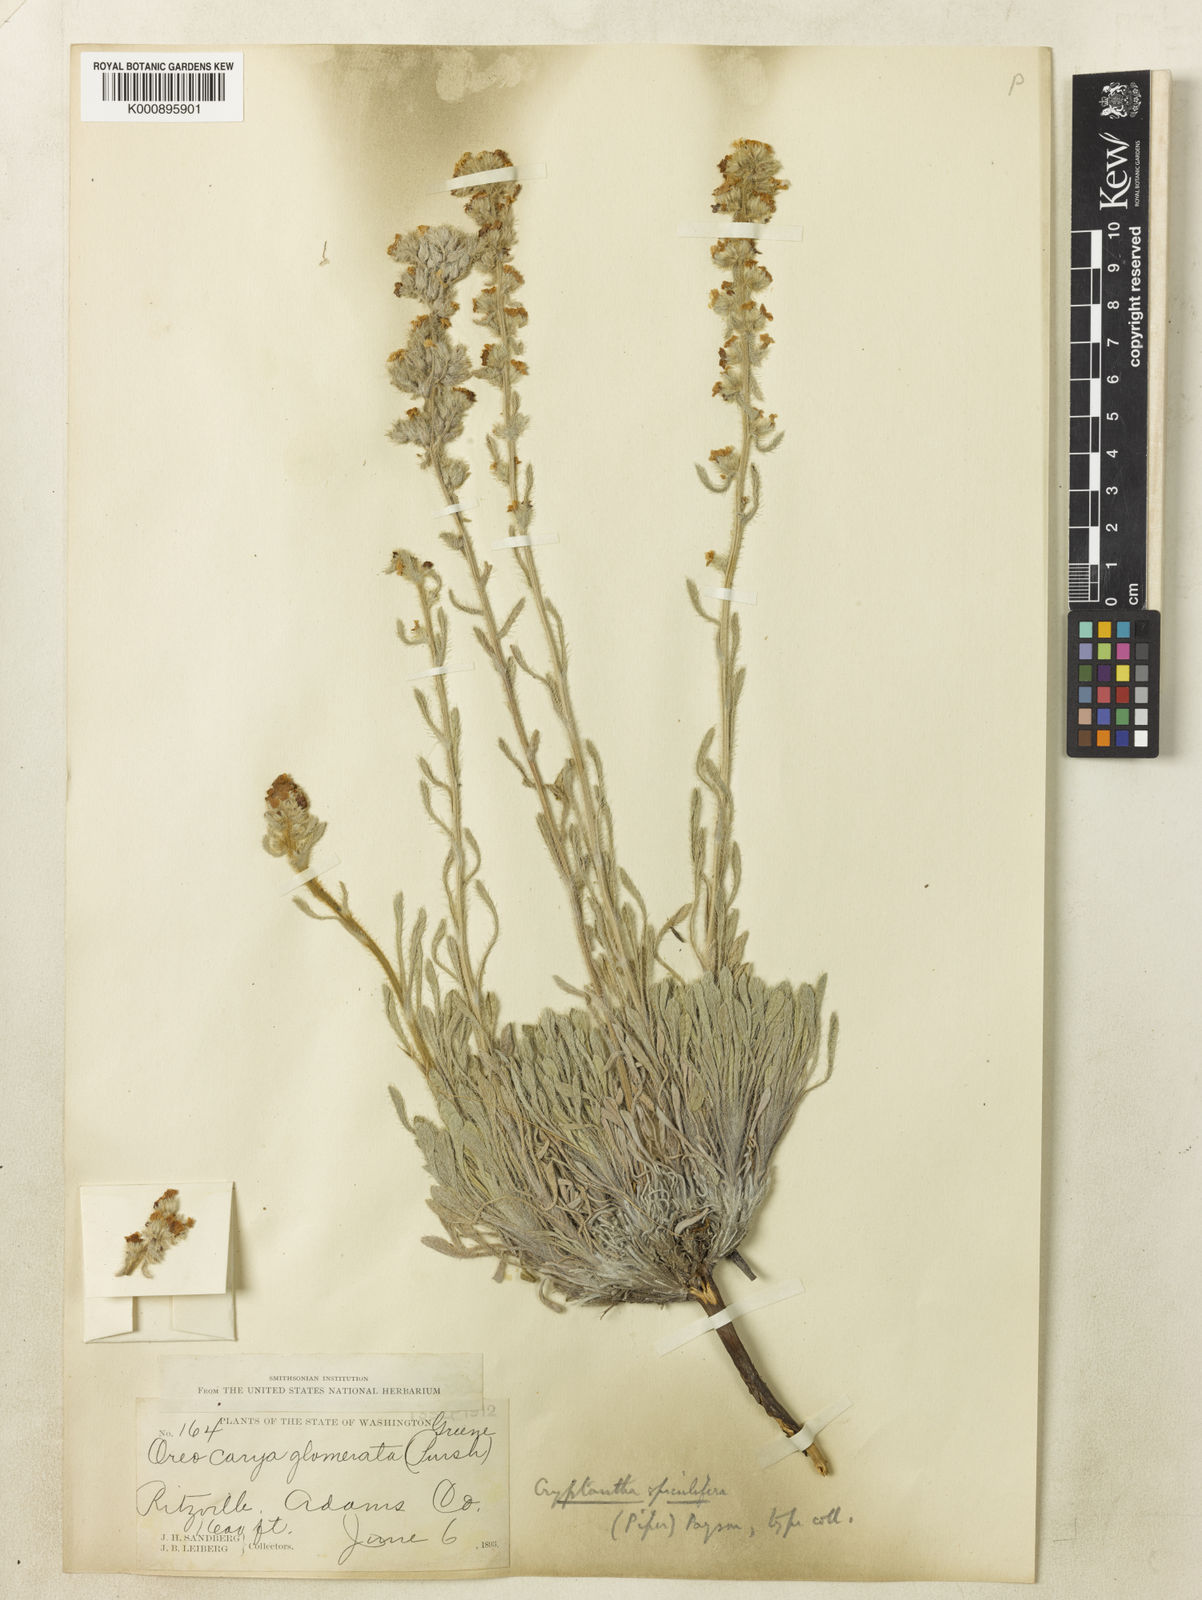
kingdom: Plantae
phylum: Tracheophyta
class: Magnoliopsida
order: Boraginales
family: Boraginaceae
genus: Oreocarya
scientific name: Oreocarya spiculifera
